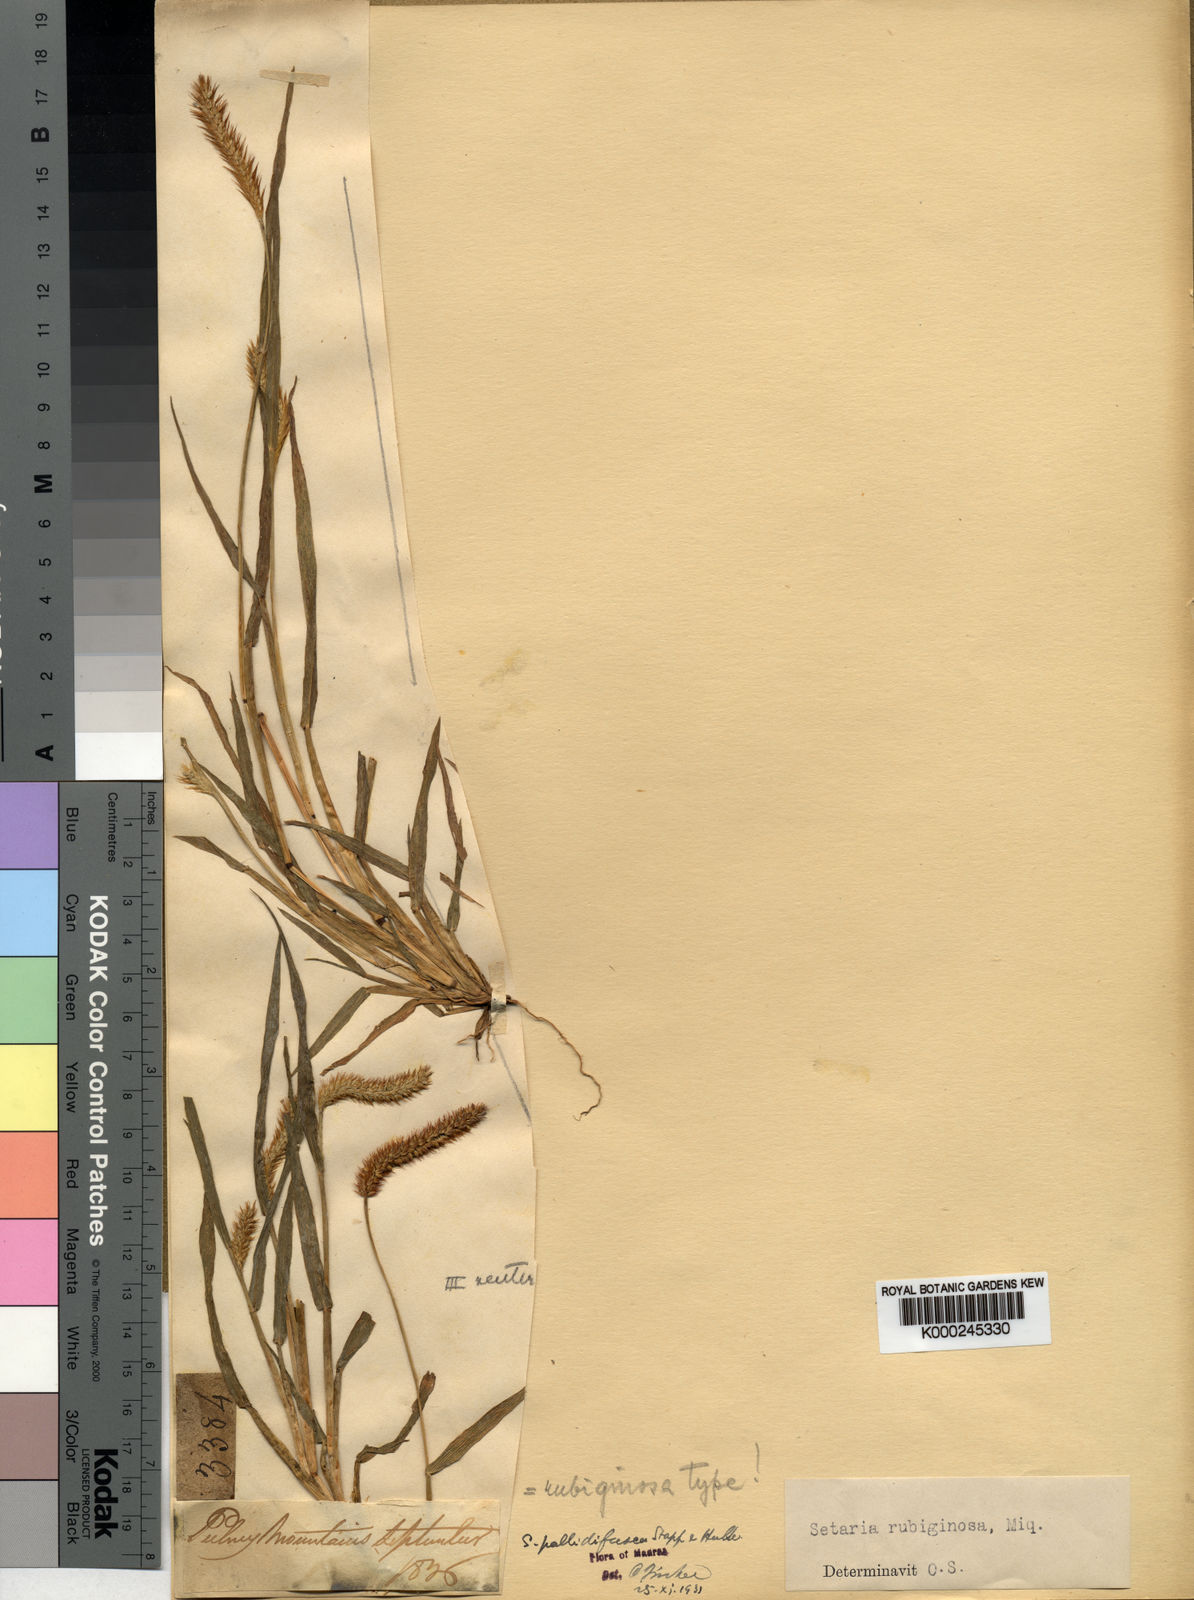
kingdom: Plantae
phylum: Tracheophyta
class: Liliopsida
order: Poales
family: Poaceae
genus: Setaria
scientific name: Setaria pumila
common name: Yellow bristle-grass
